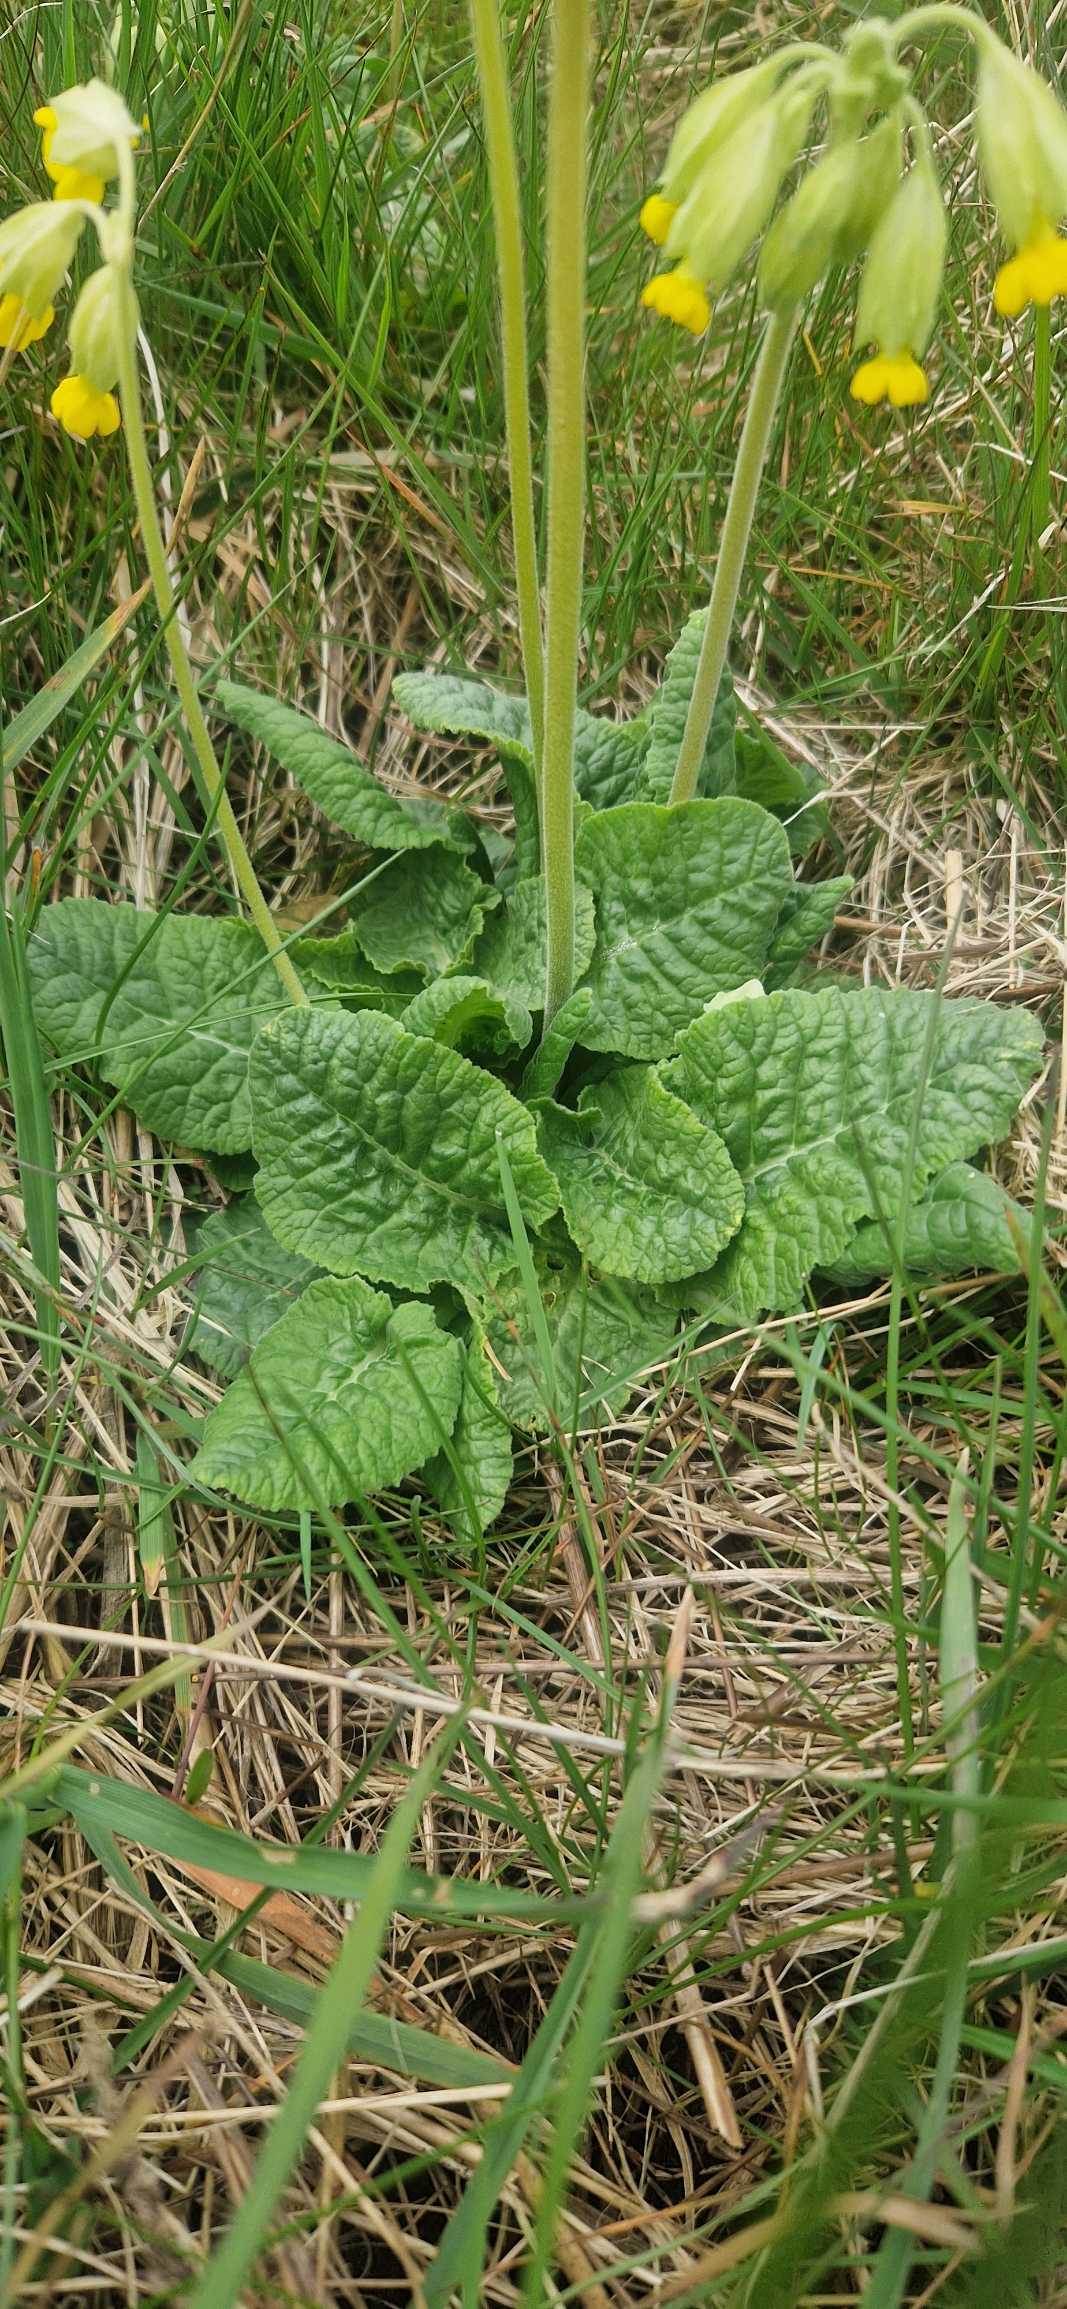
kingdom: Plantae
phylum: Tracheophyta
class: Magnoliopsida
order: Ericales
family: Primulaceae
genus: Primula
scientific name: Primula veris
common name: Hulkravet kodriver
